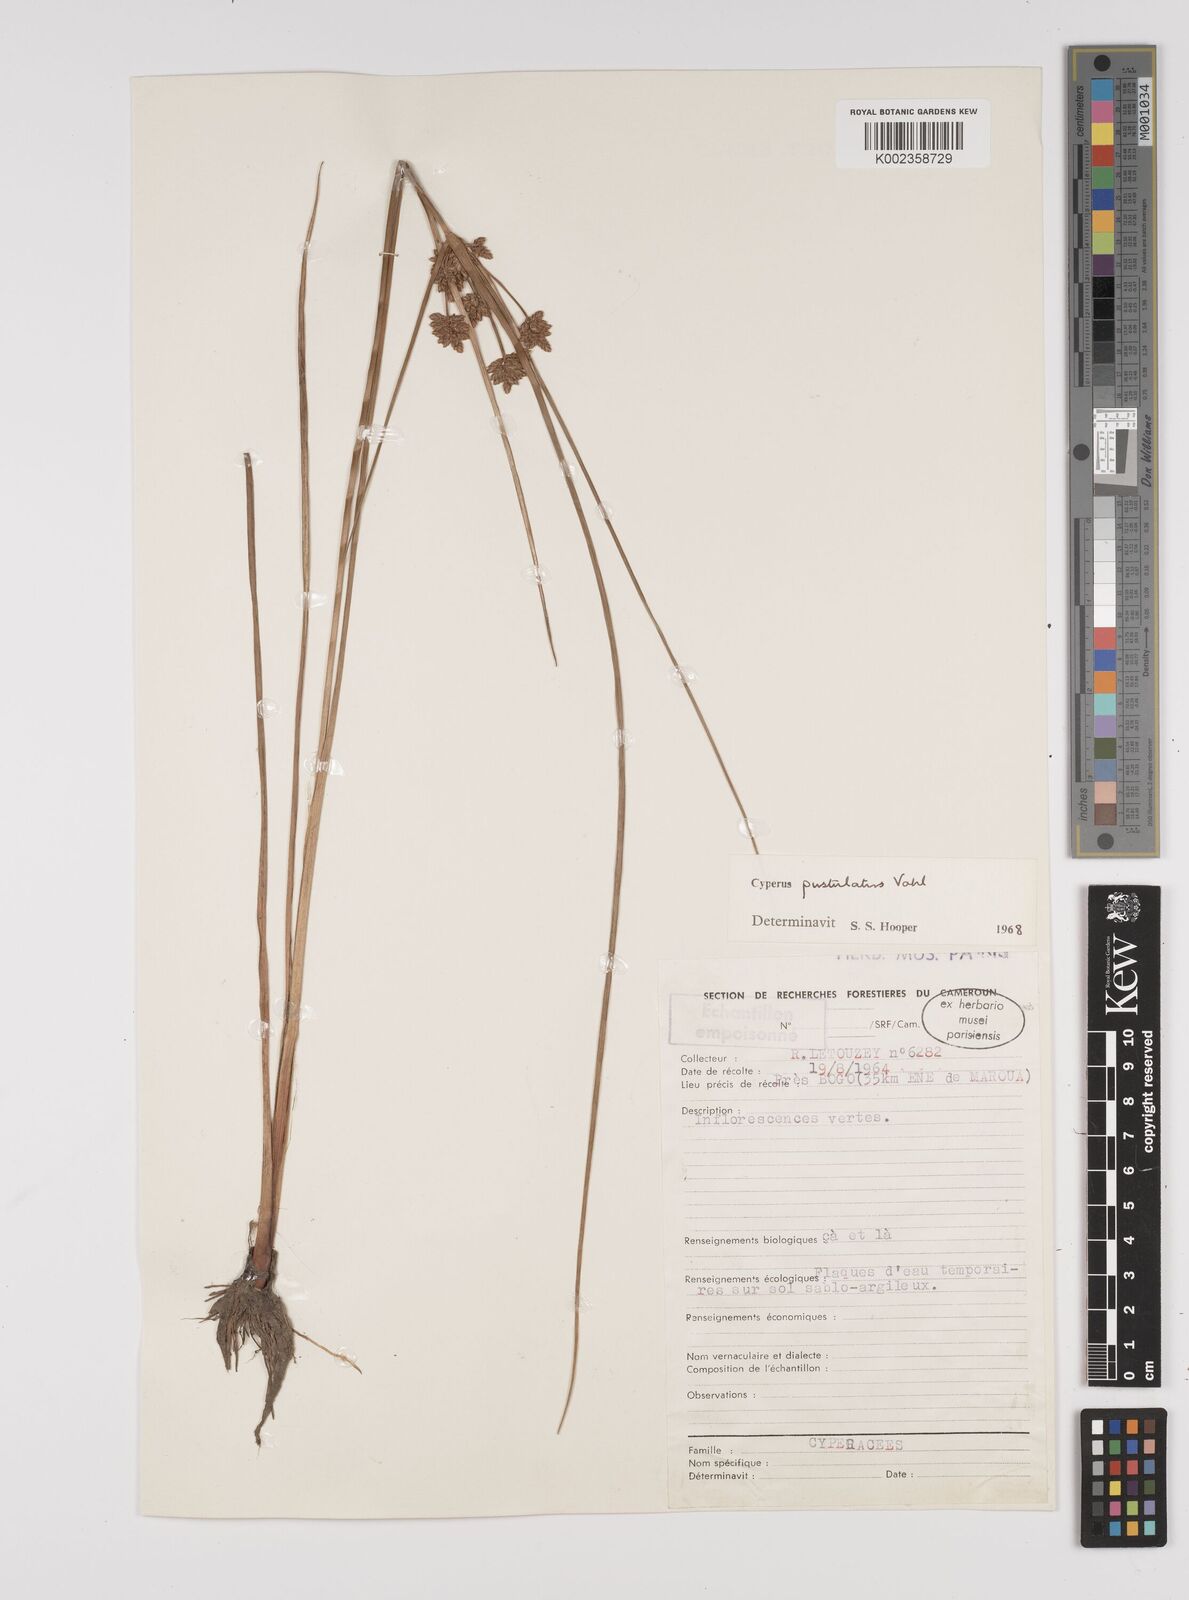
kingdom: Plantae
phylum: Tracheophyta
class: Liliopsida
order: Poales
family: Cyperaceae
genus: Cyperus
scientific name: Cyperus pustulatus
